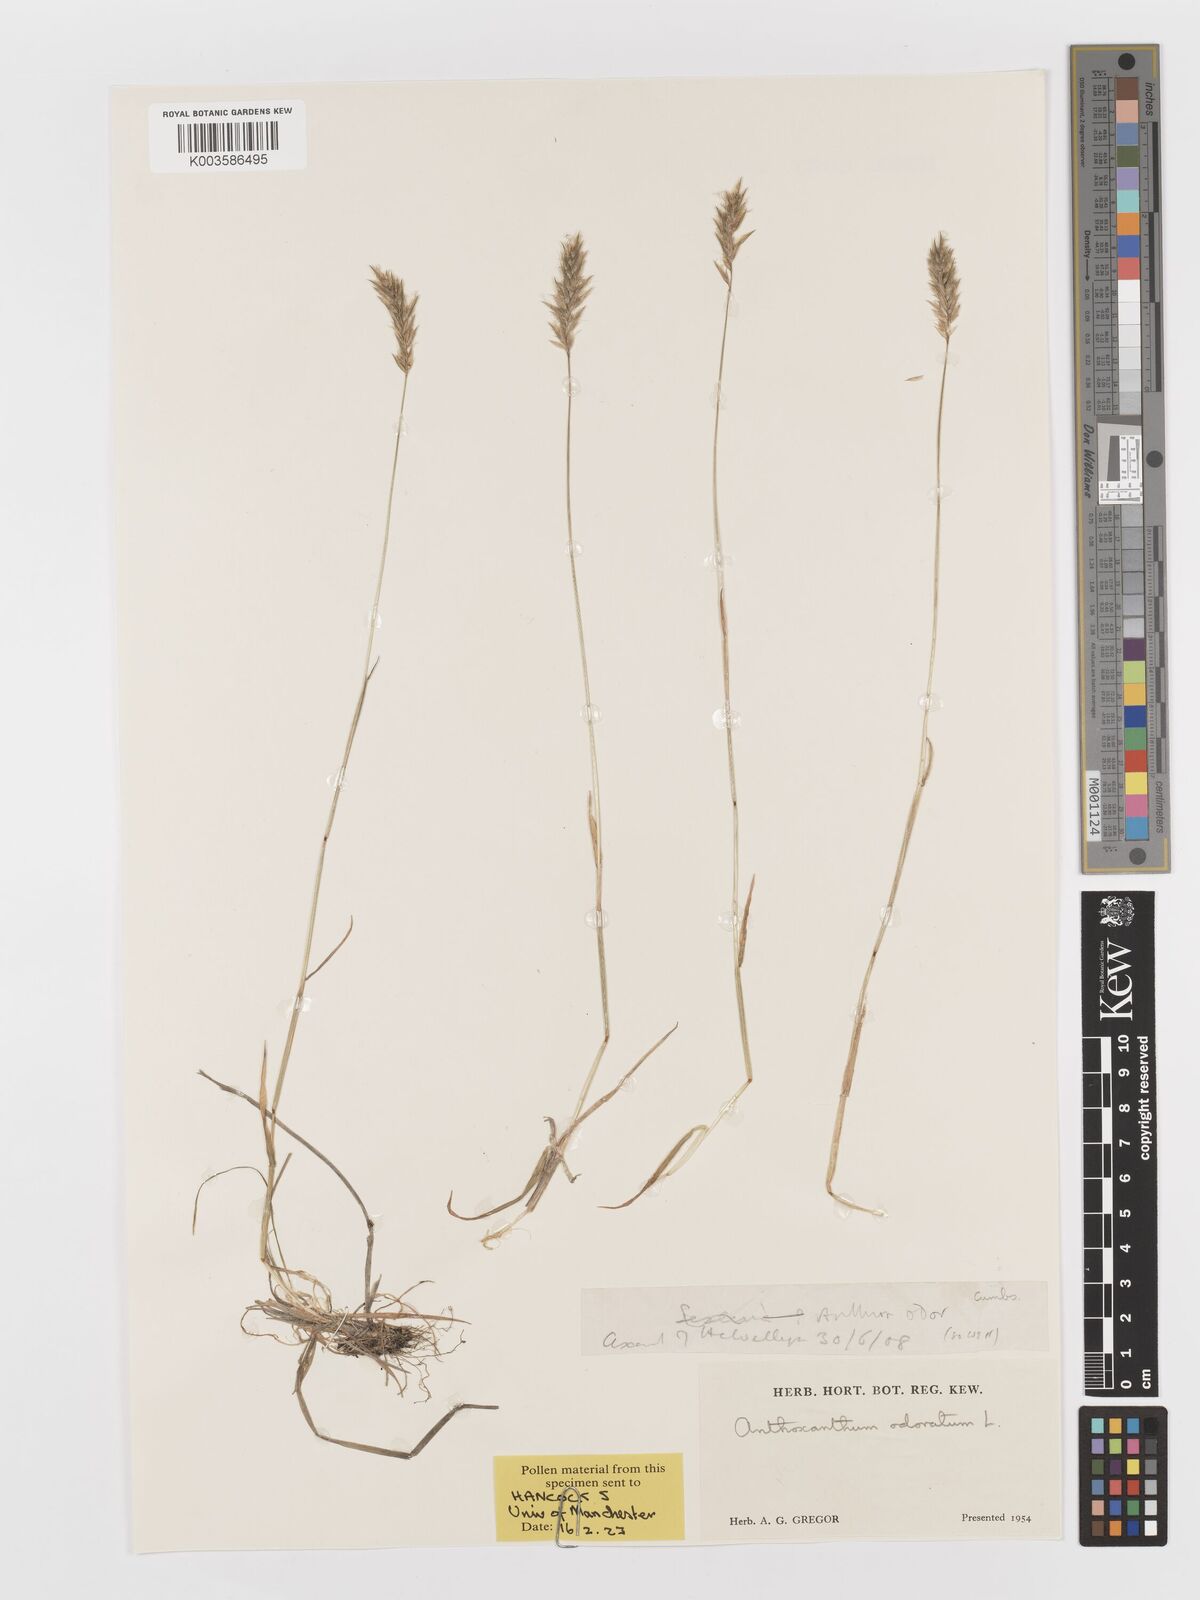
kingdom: Plantae
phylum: Tracheophyta
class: Liliopsida
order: Poales
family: Poaceae
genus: Anthoxanthum
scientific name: Anthoxanthum odoratum
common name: Sweet vernalgrass
